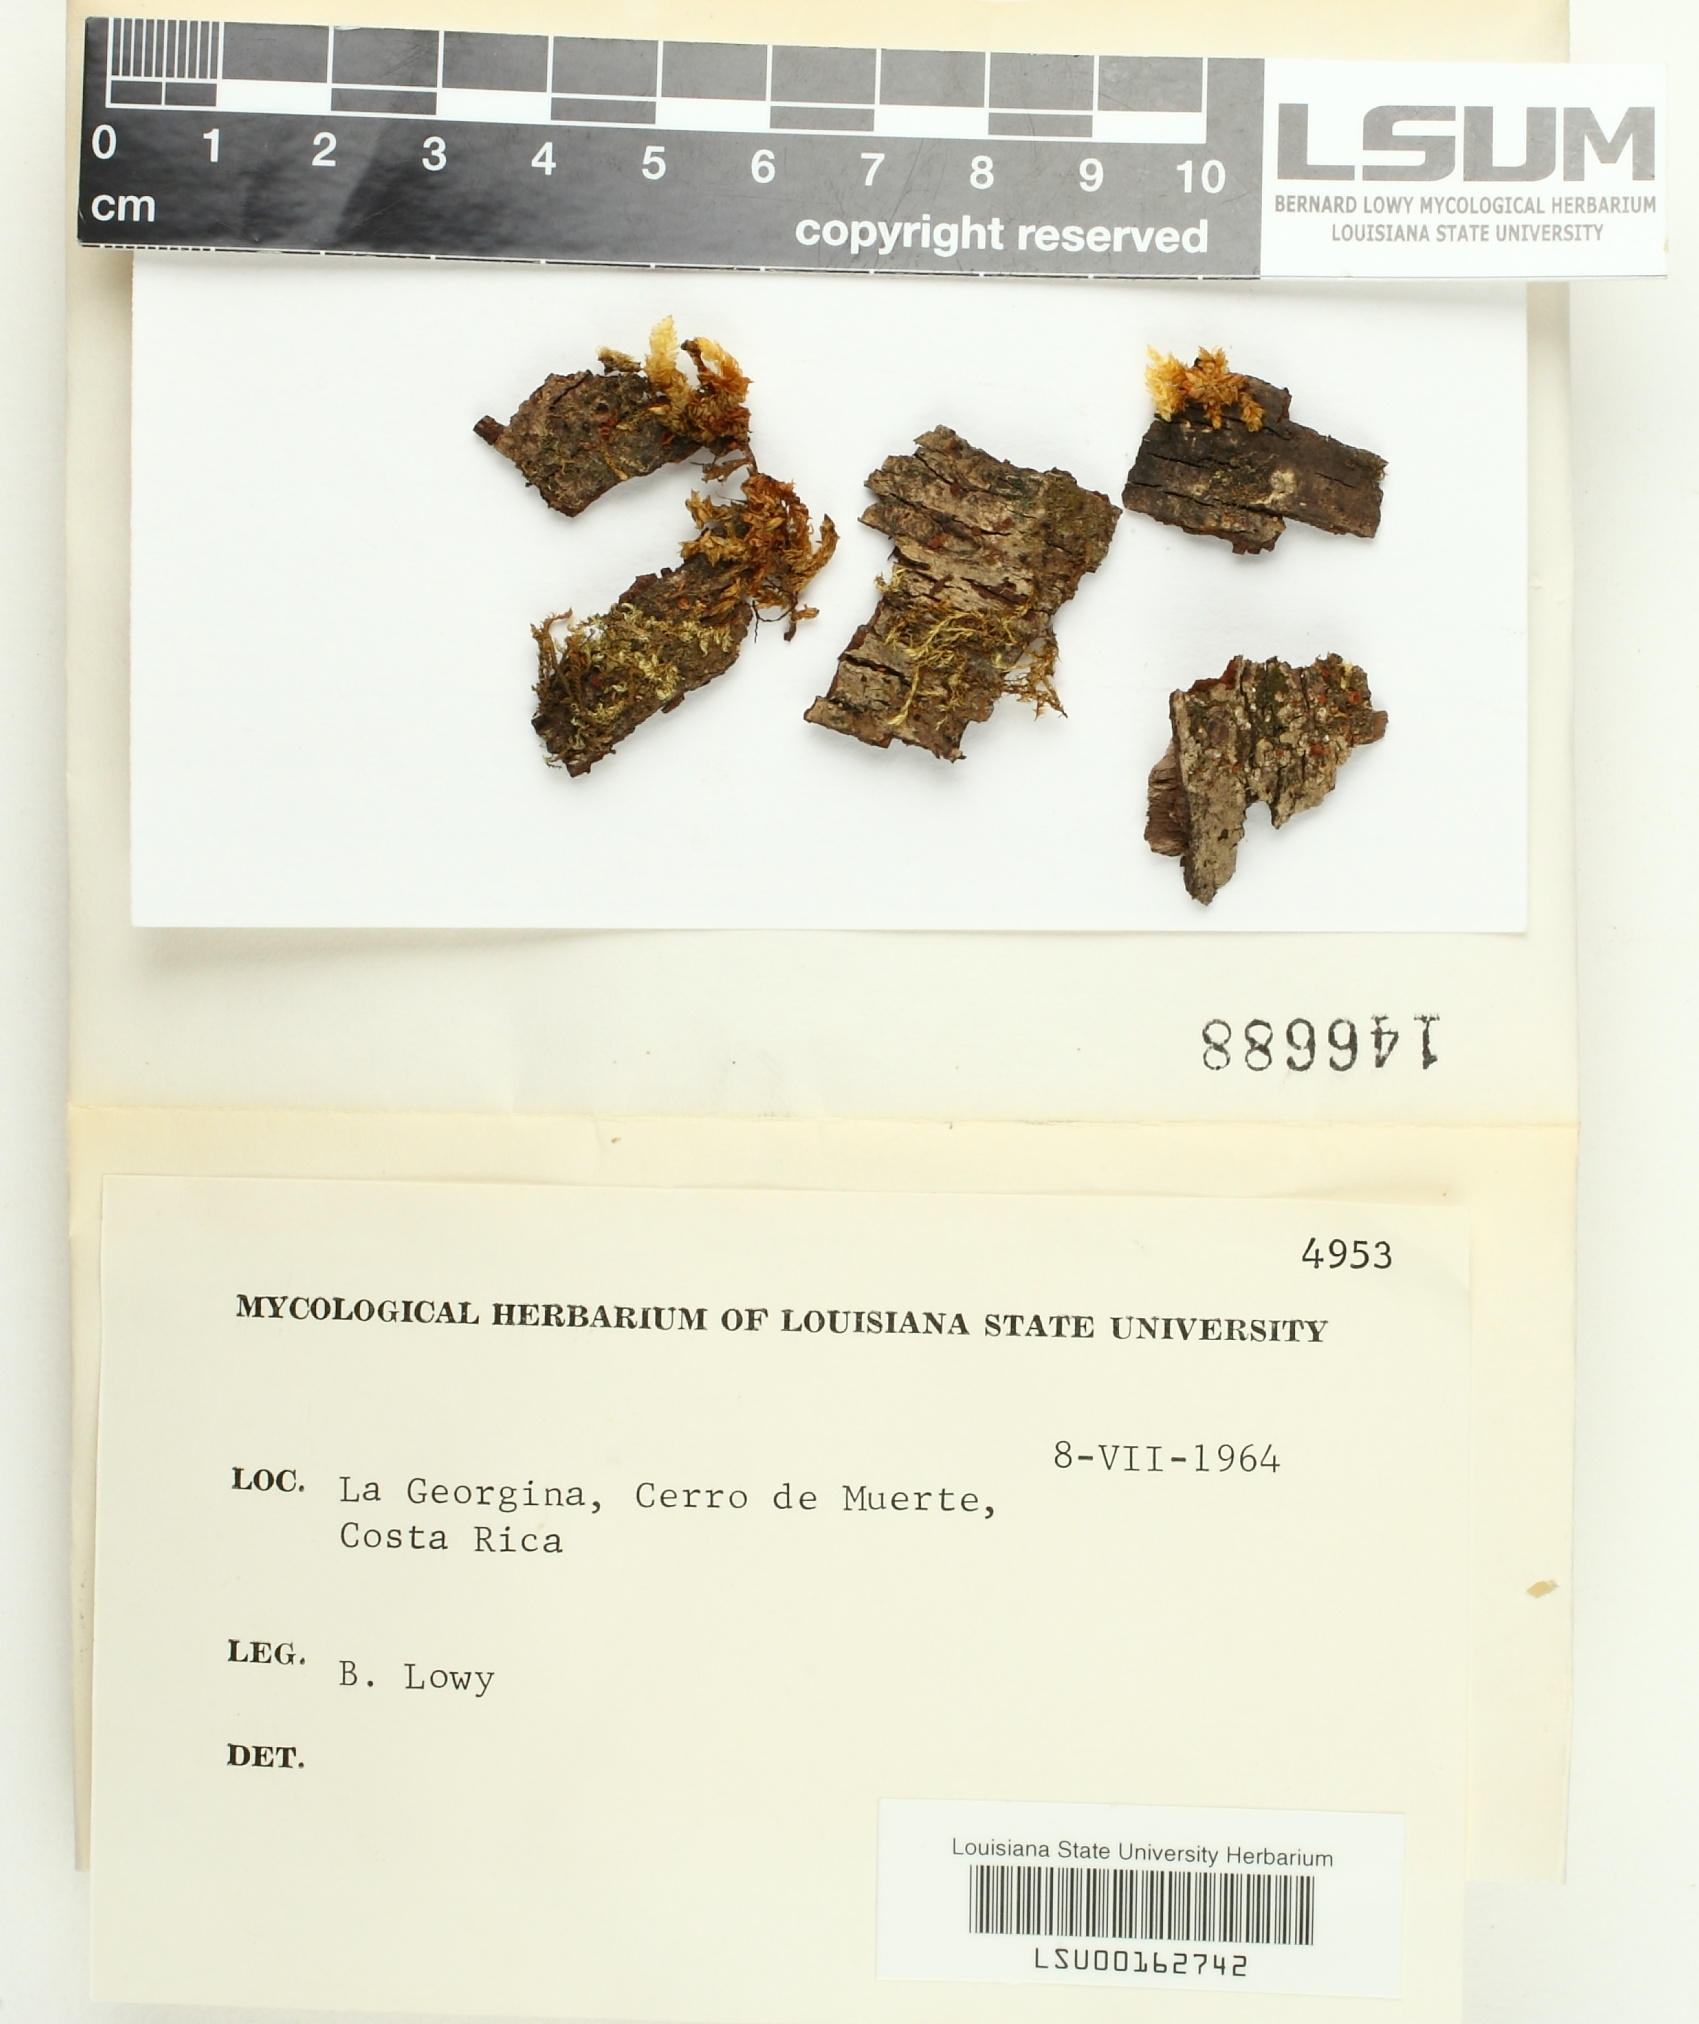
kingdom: Fungi
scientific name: Fungi
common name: Fungi
